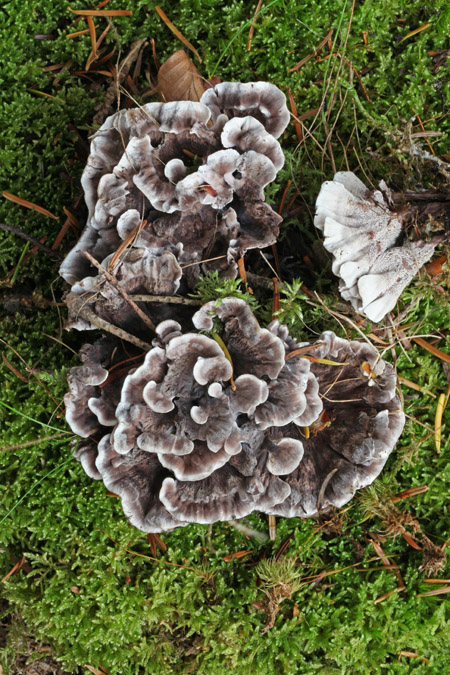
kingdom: Fungi
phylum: Basidiomycota
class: Agaricomycetes
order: Thelephorales
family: Thelephoraceae
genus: Phellodon
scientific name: Phellodon tomentosus
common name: vellugtende duftpigsvamp
